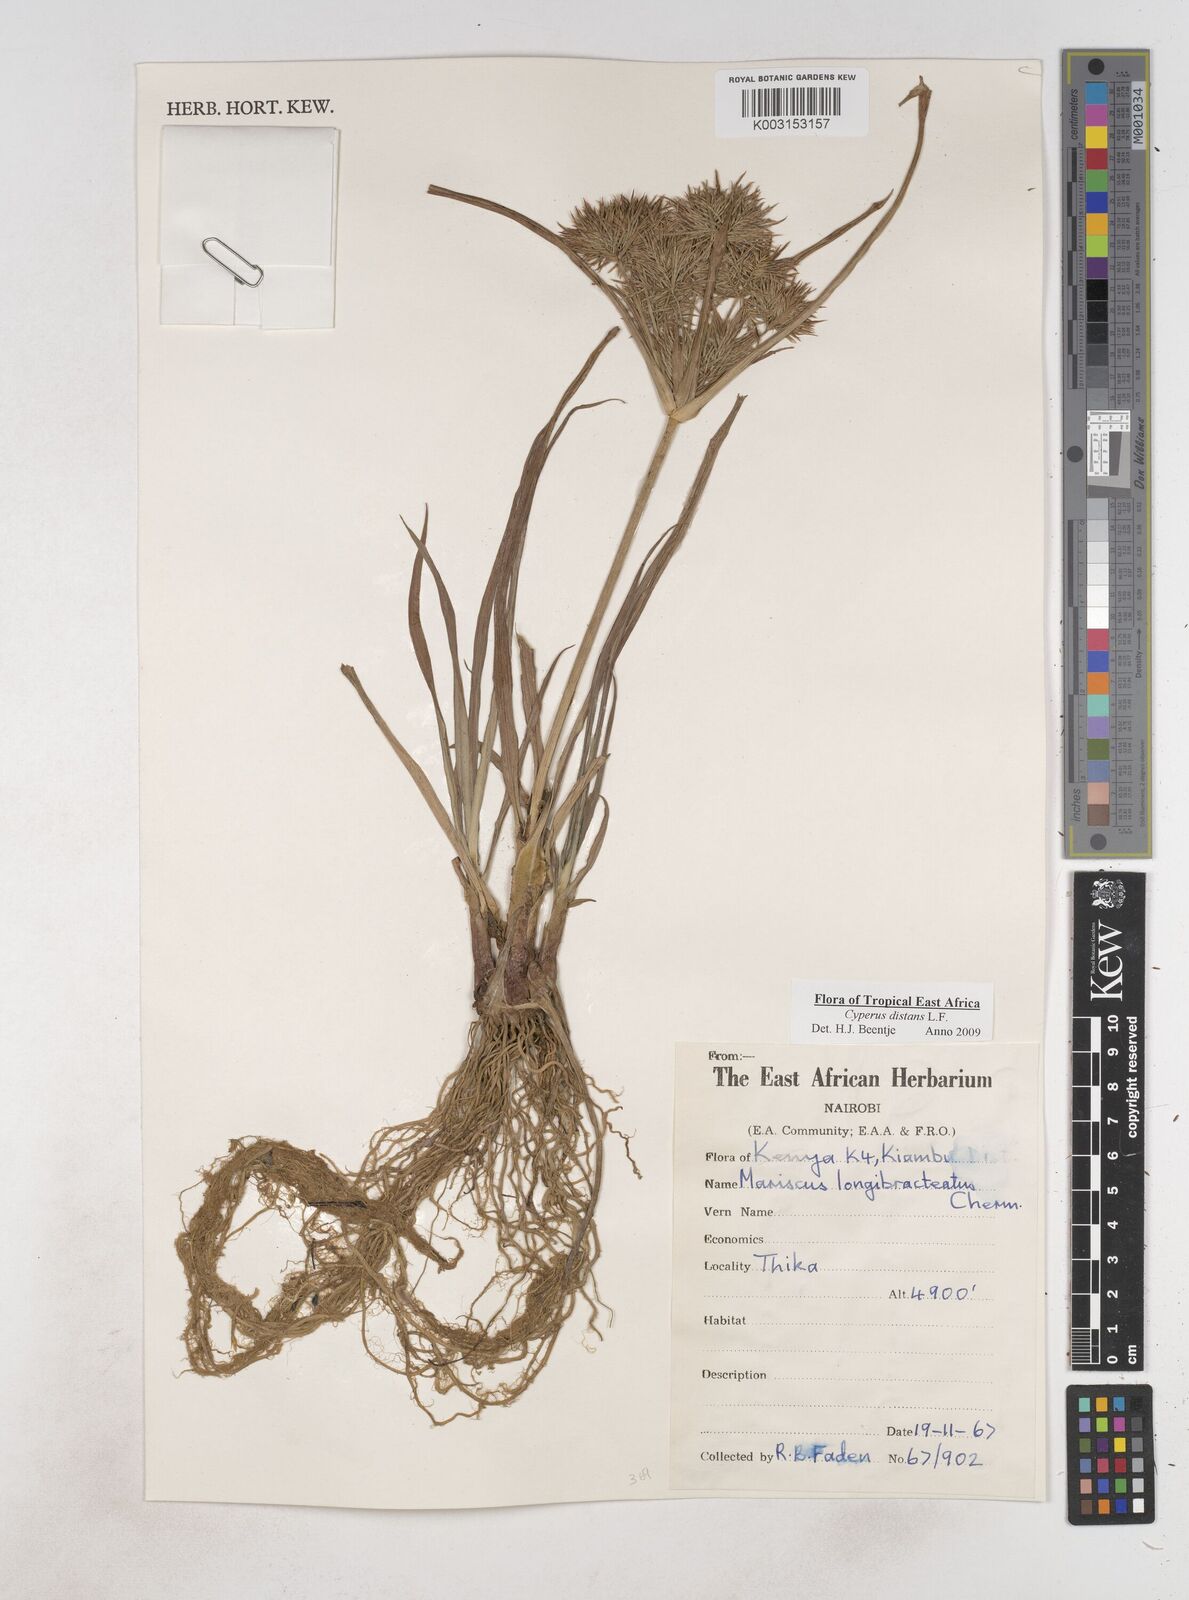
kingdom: Plantae
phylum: Tracheophyta
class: Liliopsida
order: Poales
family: Cyperaceae
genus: Cyperus
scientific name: Cyperus distans
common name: Slender cyperus
